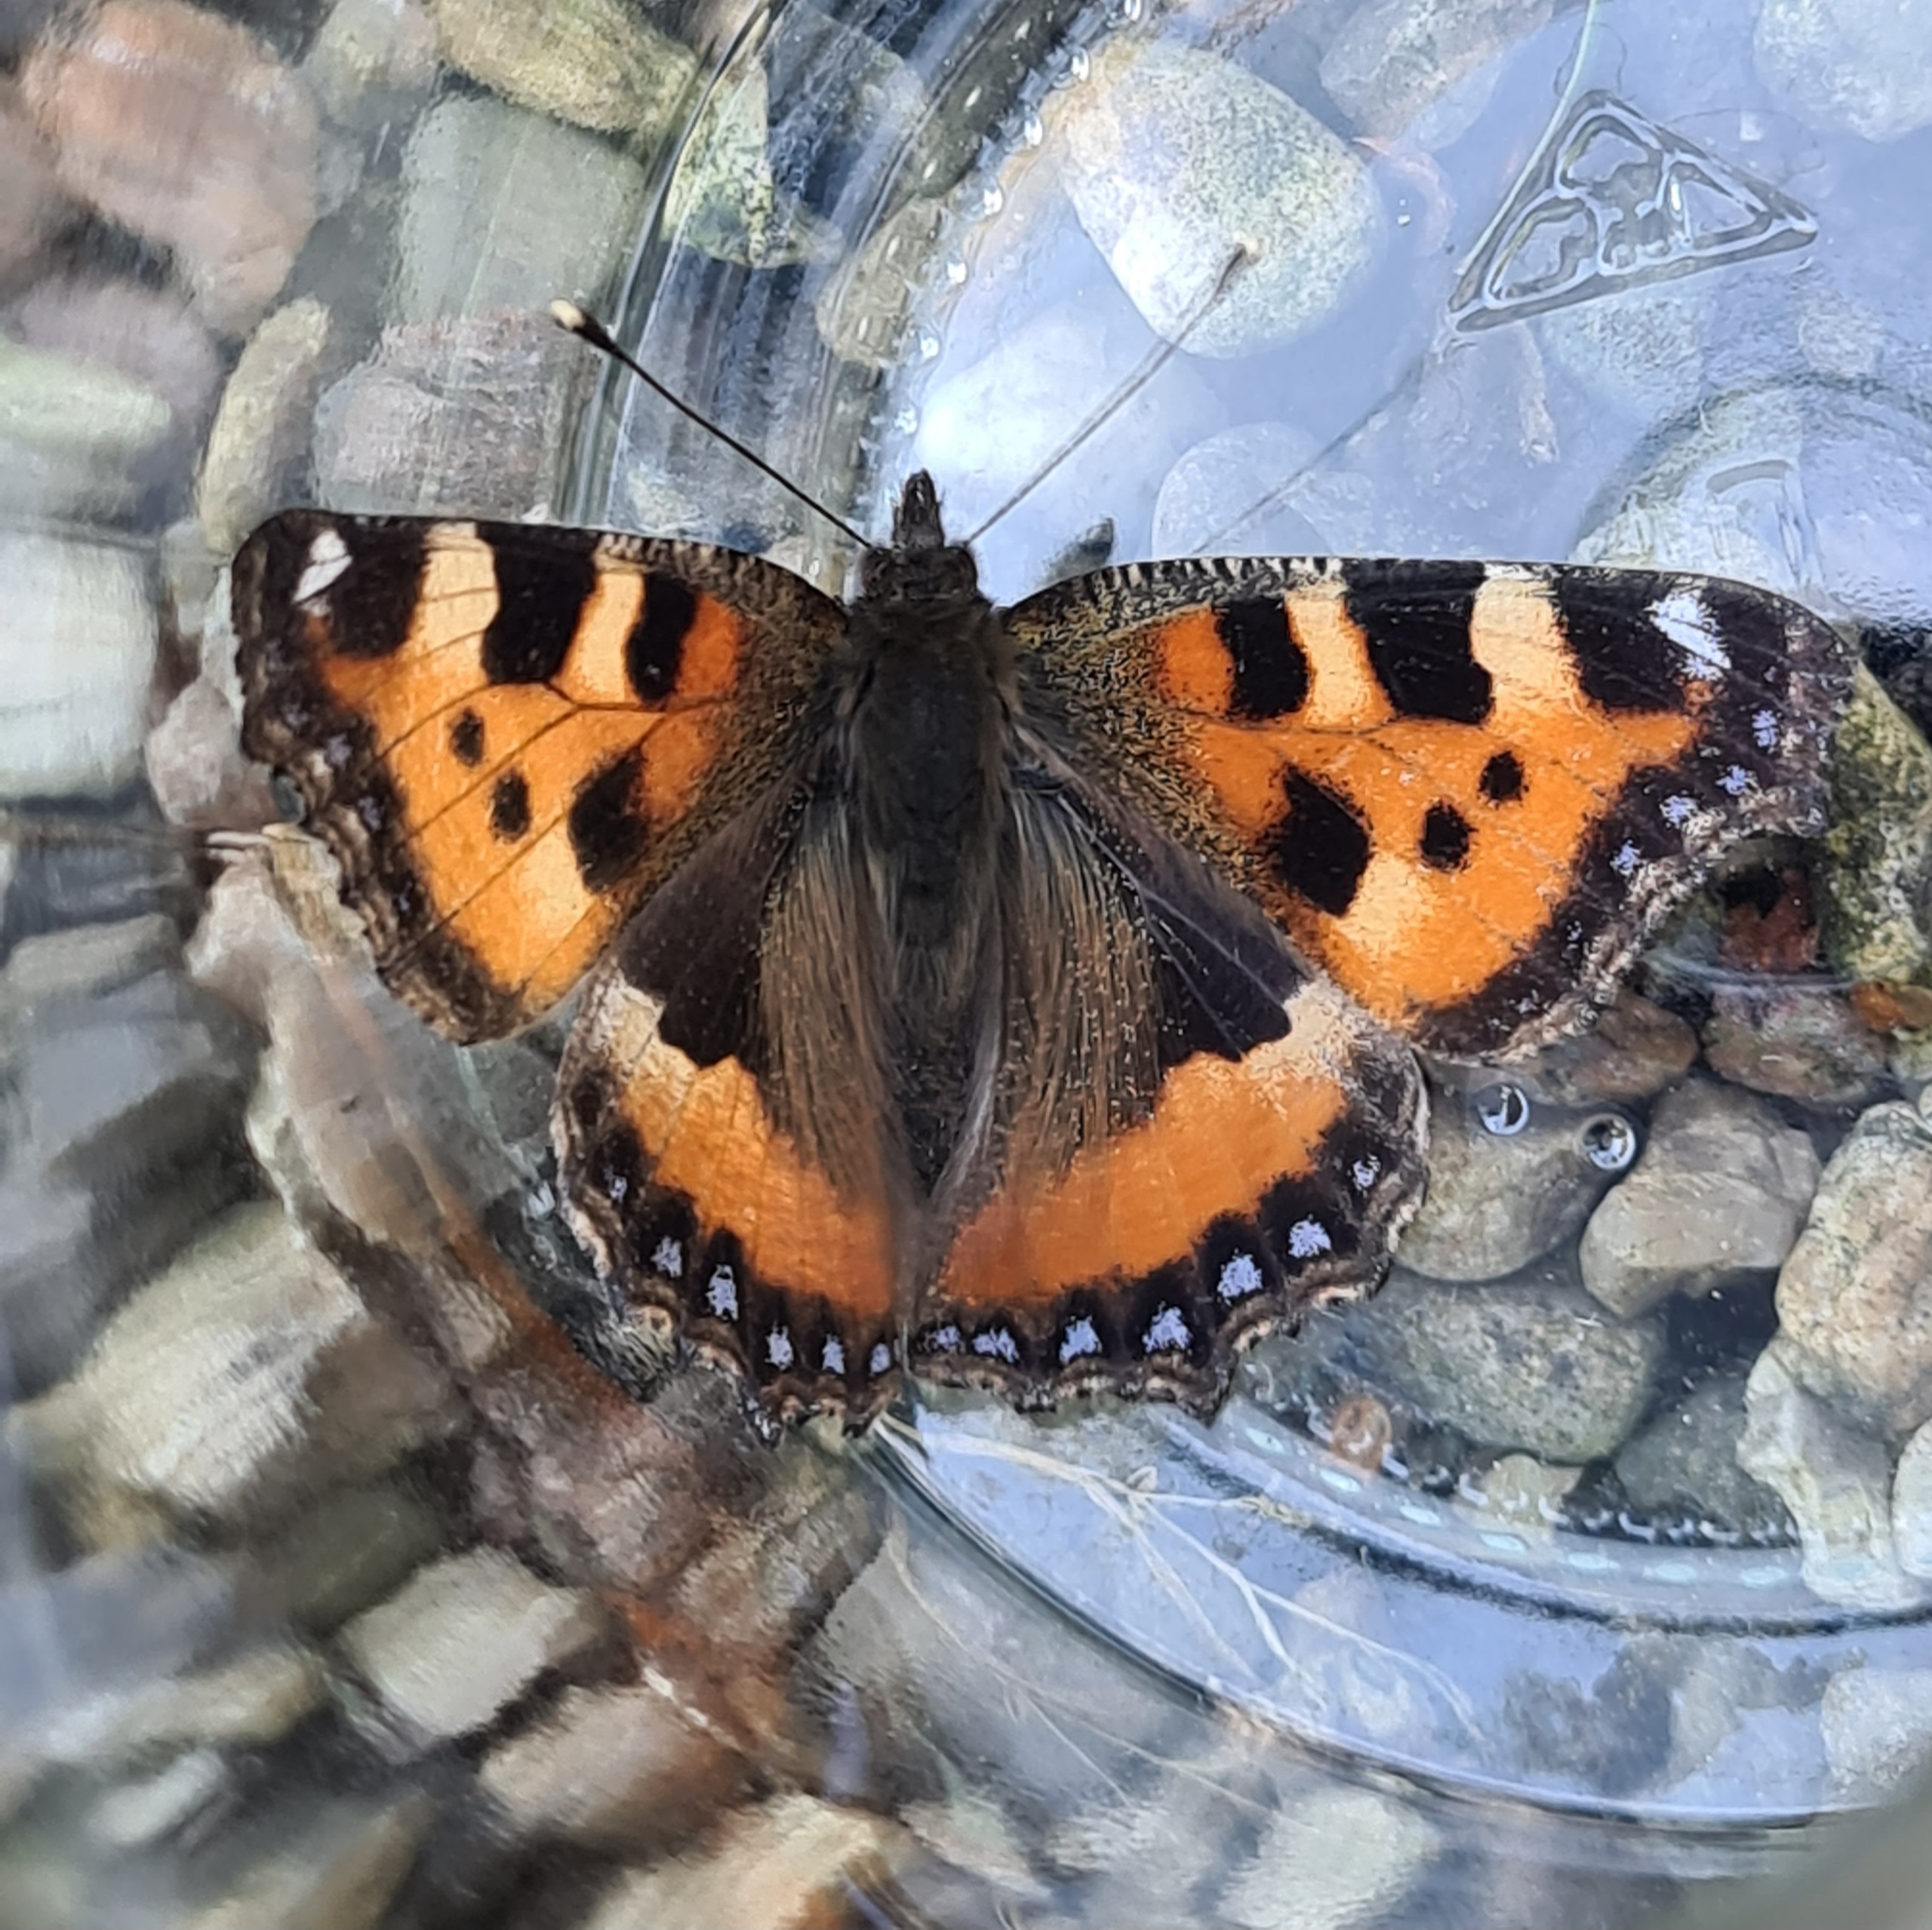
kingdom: Animalia
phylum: Arthropoda
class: Insecta
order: Lepidoptera
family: Nymphalidae
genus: Aglais
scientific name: Aglais urticae
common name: Nældens takvinge
